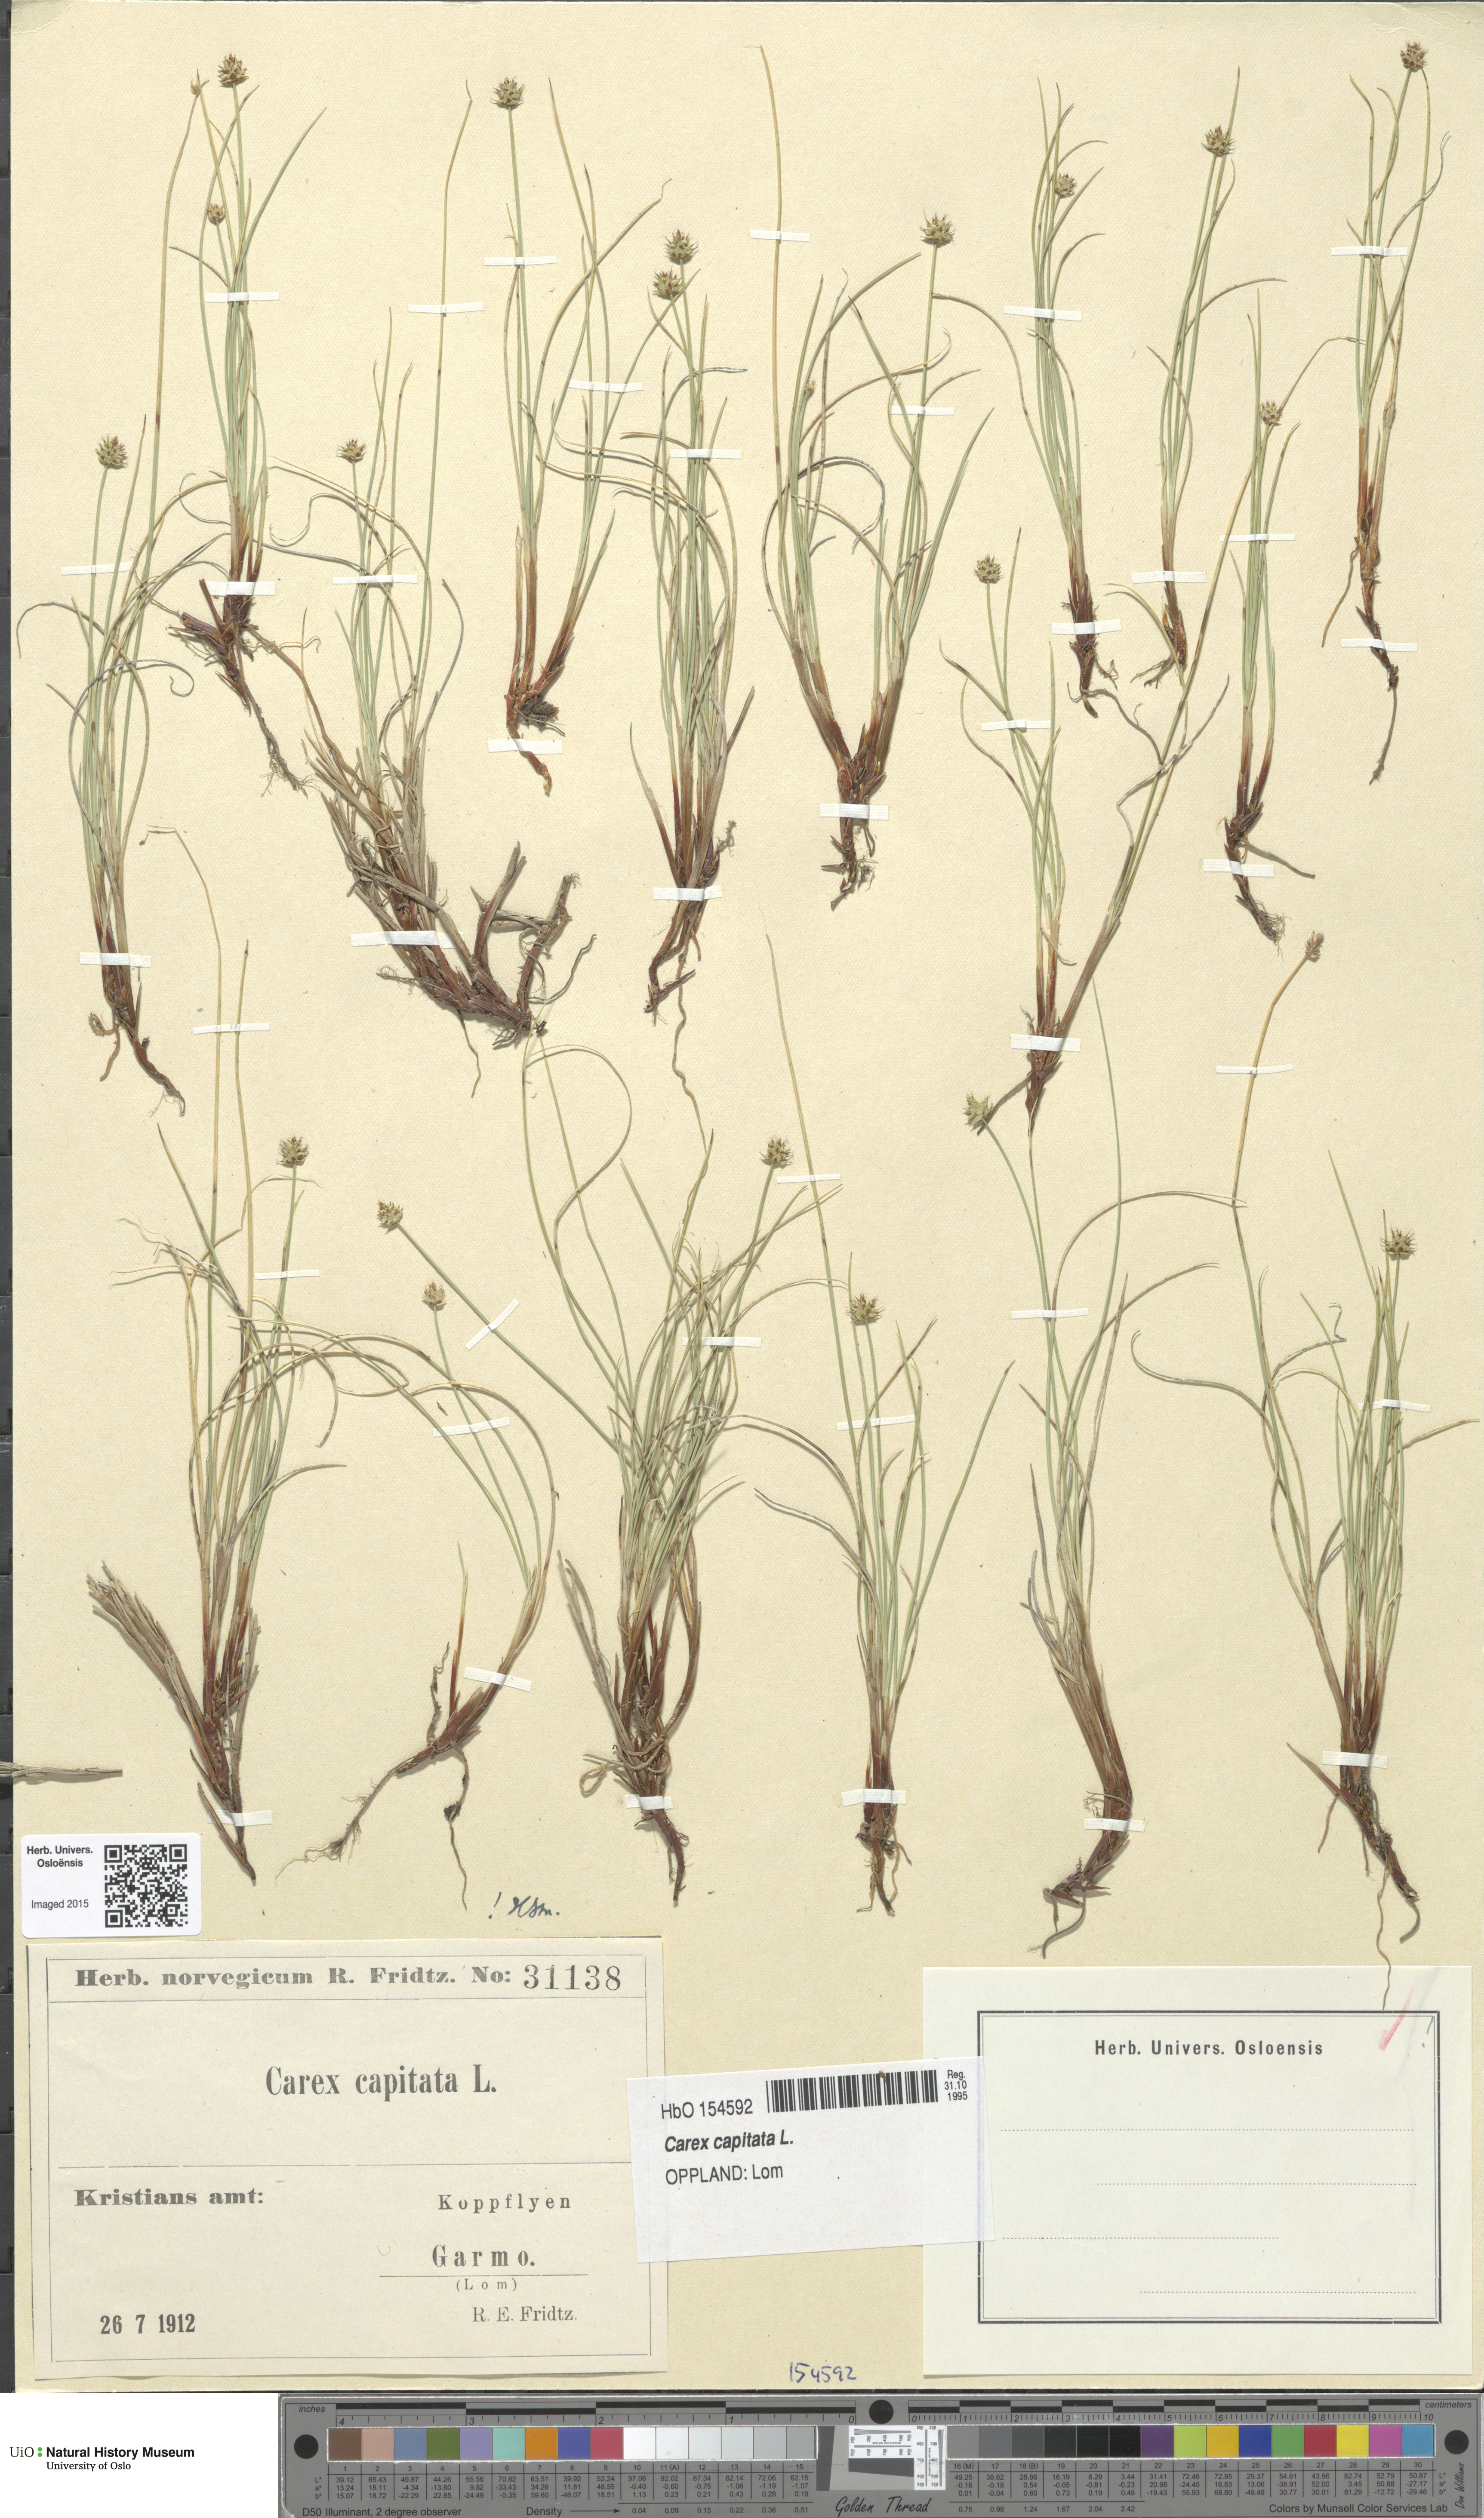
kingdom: Plantae
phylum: Tracheophyta
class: Liliopsida
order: Poales
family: Cyperaceae
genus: Carex
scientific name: Carex capitata
